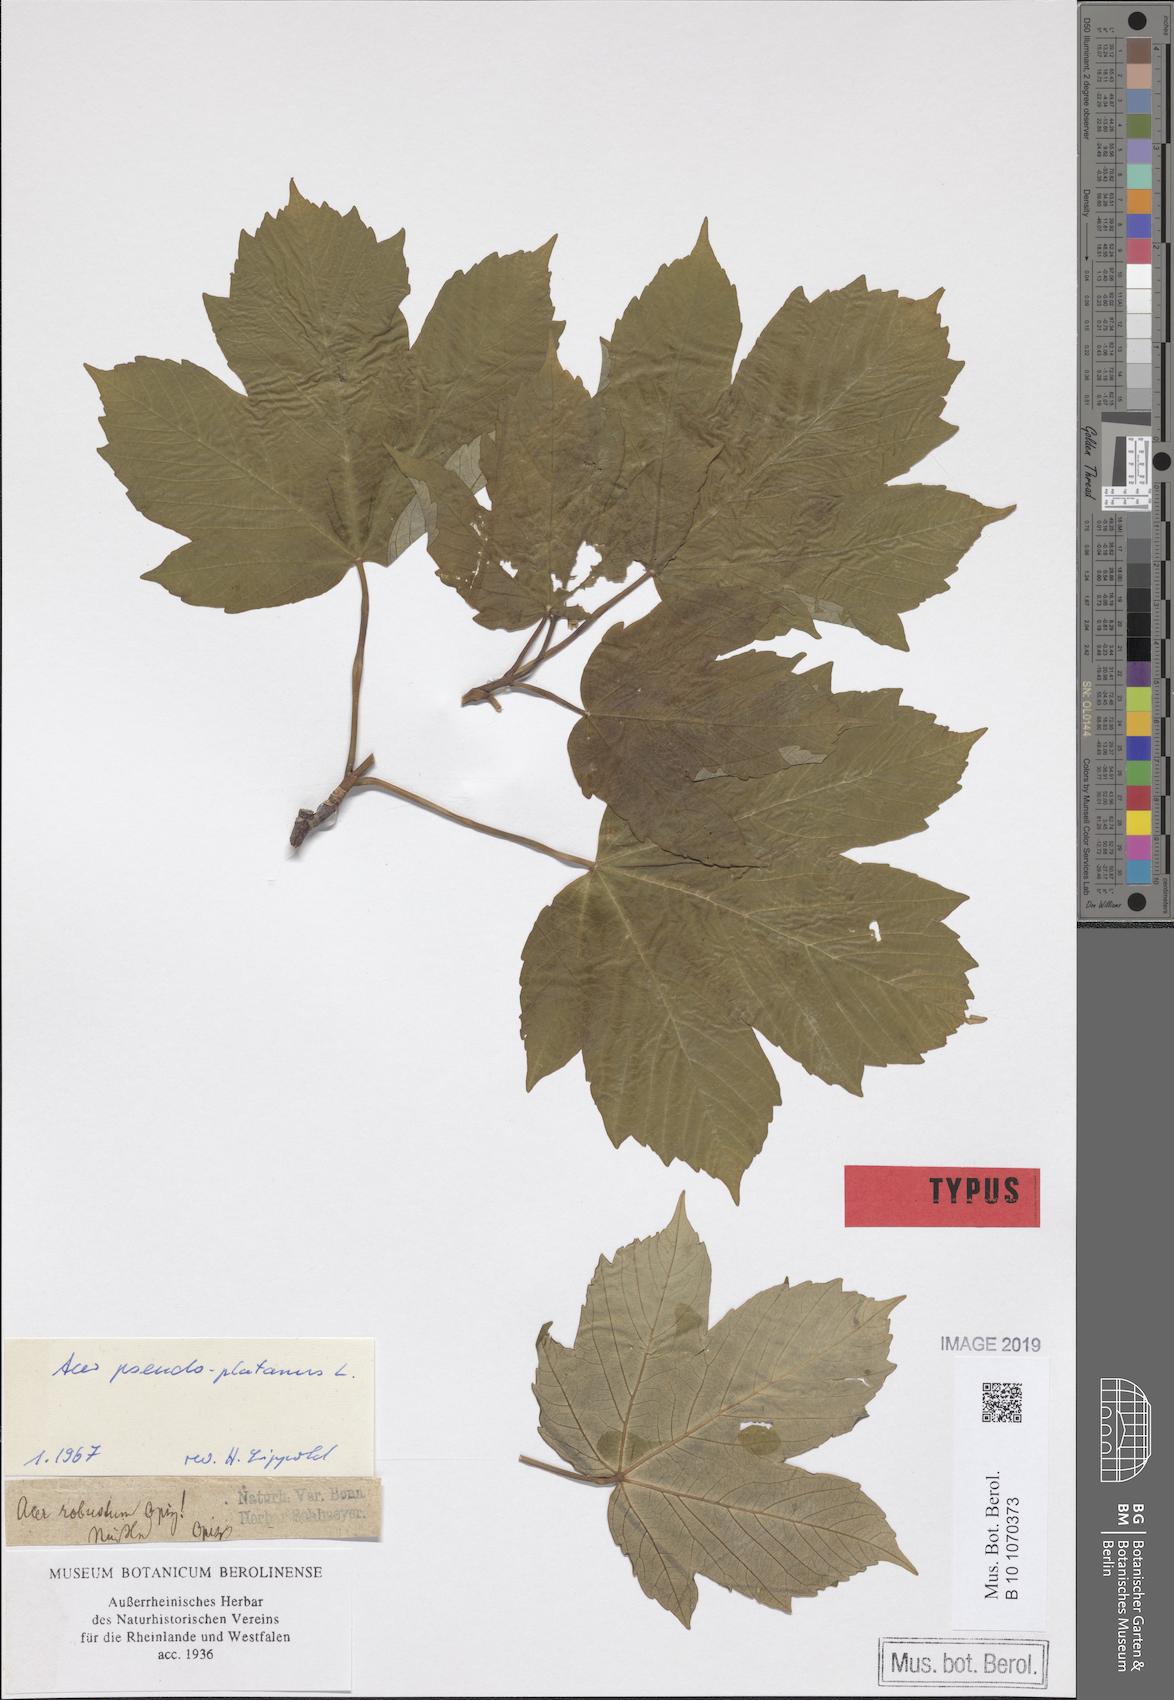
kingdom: Plantae
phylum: Tracheophyta
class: Magnoliopsida
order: Sapindales
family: Sapindaceae
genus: Acer
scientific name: Acer pseudoplatanus
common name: Sycamore
